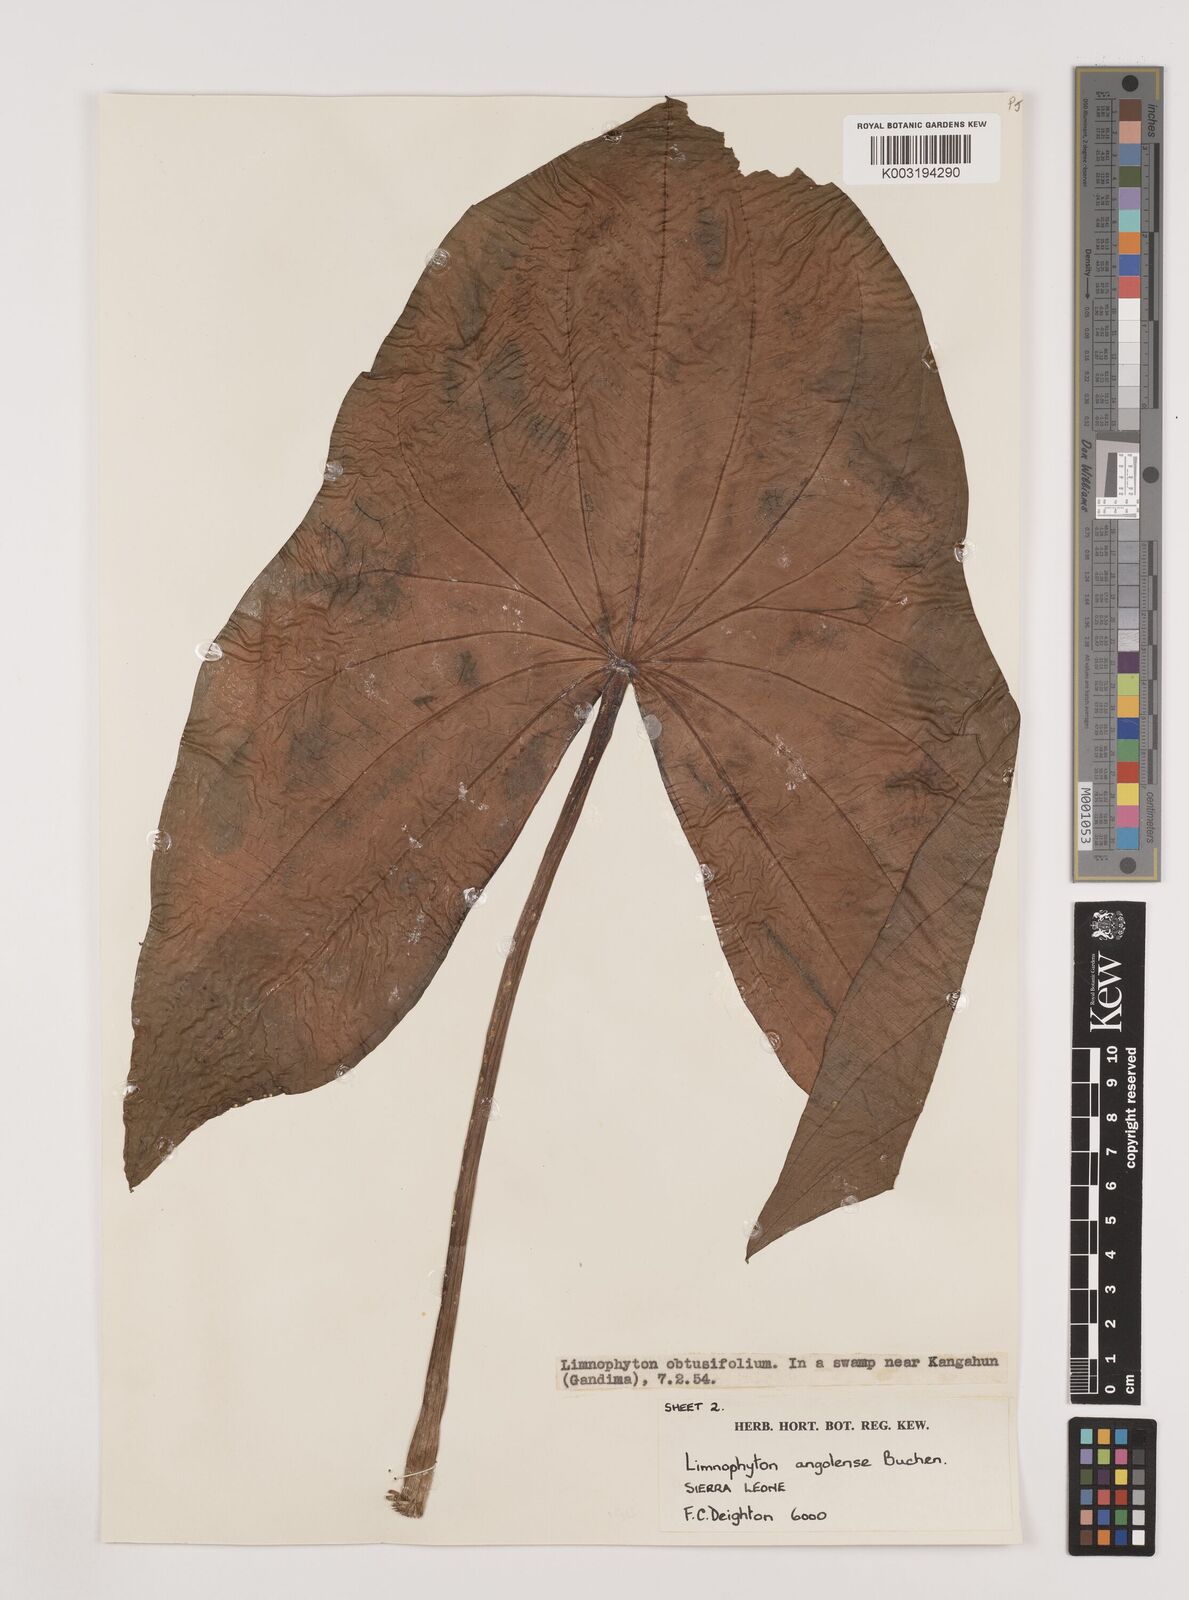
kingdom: Plantae
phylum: Tracheophyta
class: Liliopsida
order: Alismatales
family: Alismataceae
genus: Limnophyton
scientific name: Limnophyton angolense
